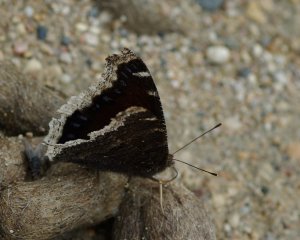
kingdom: Animalia
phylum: Arthropoda
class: Insecta
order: Lepidoptera
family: Nymphalidae
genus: Nymphalis
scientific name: Nymphalis antiopa
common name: Mourning Cloak
